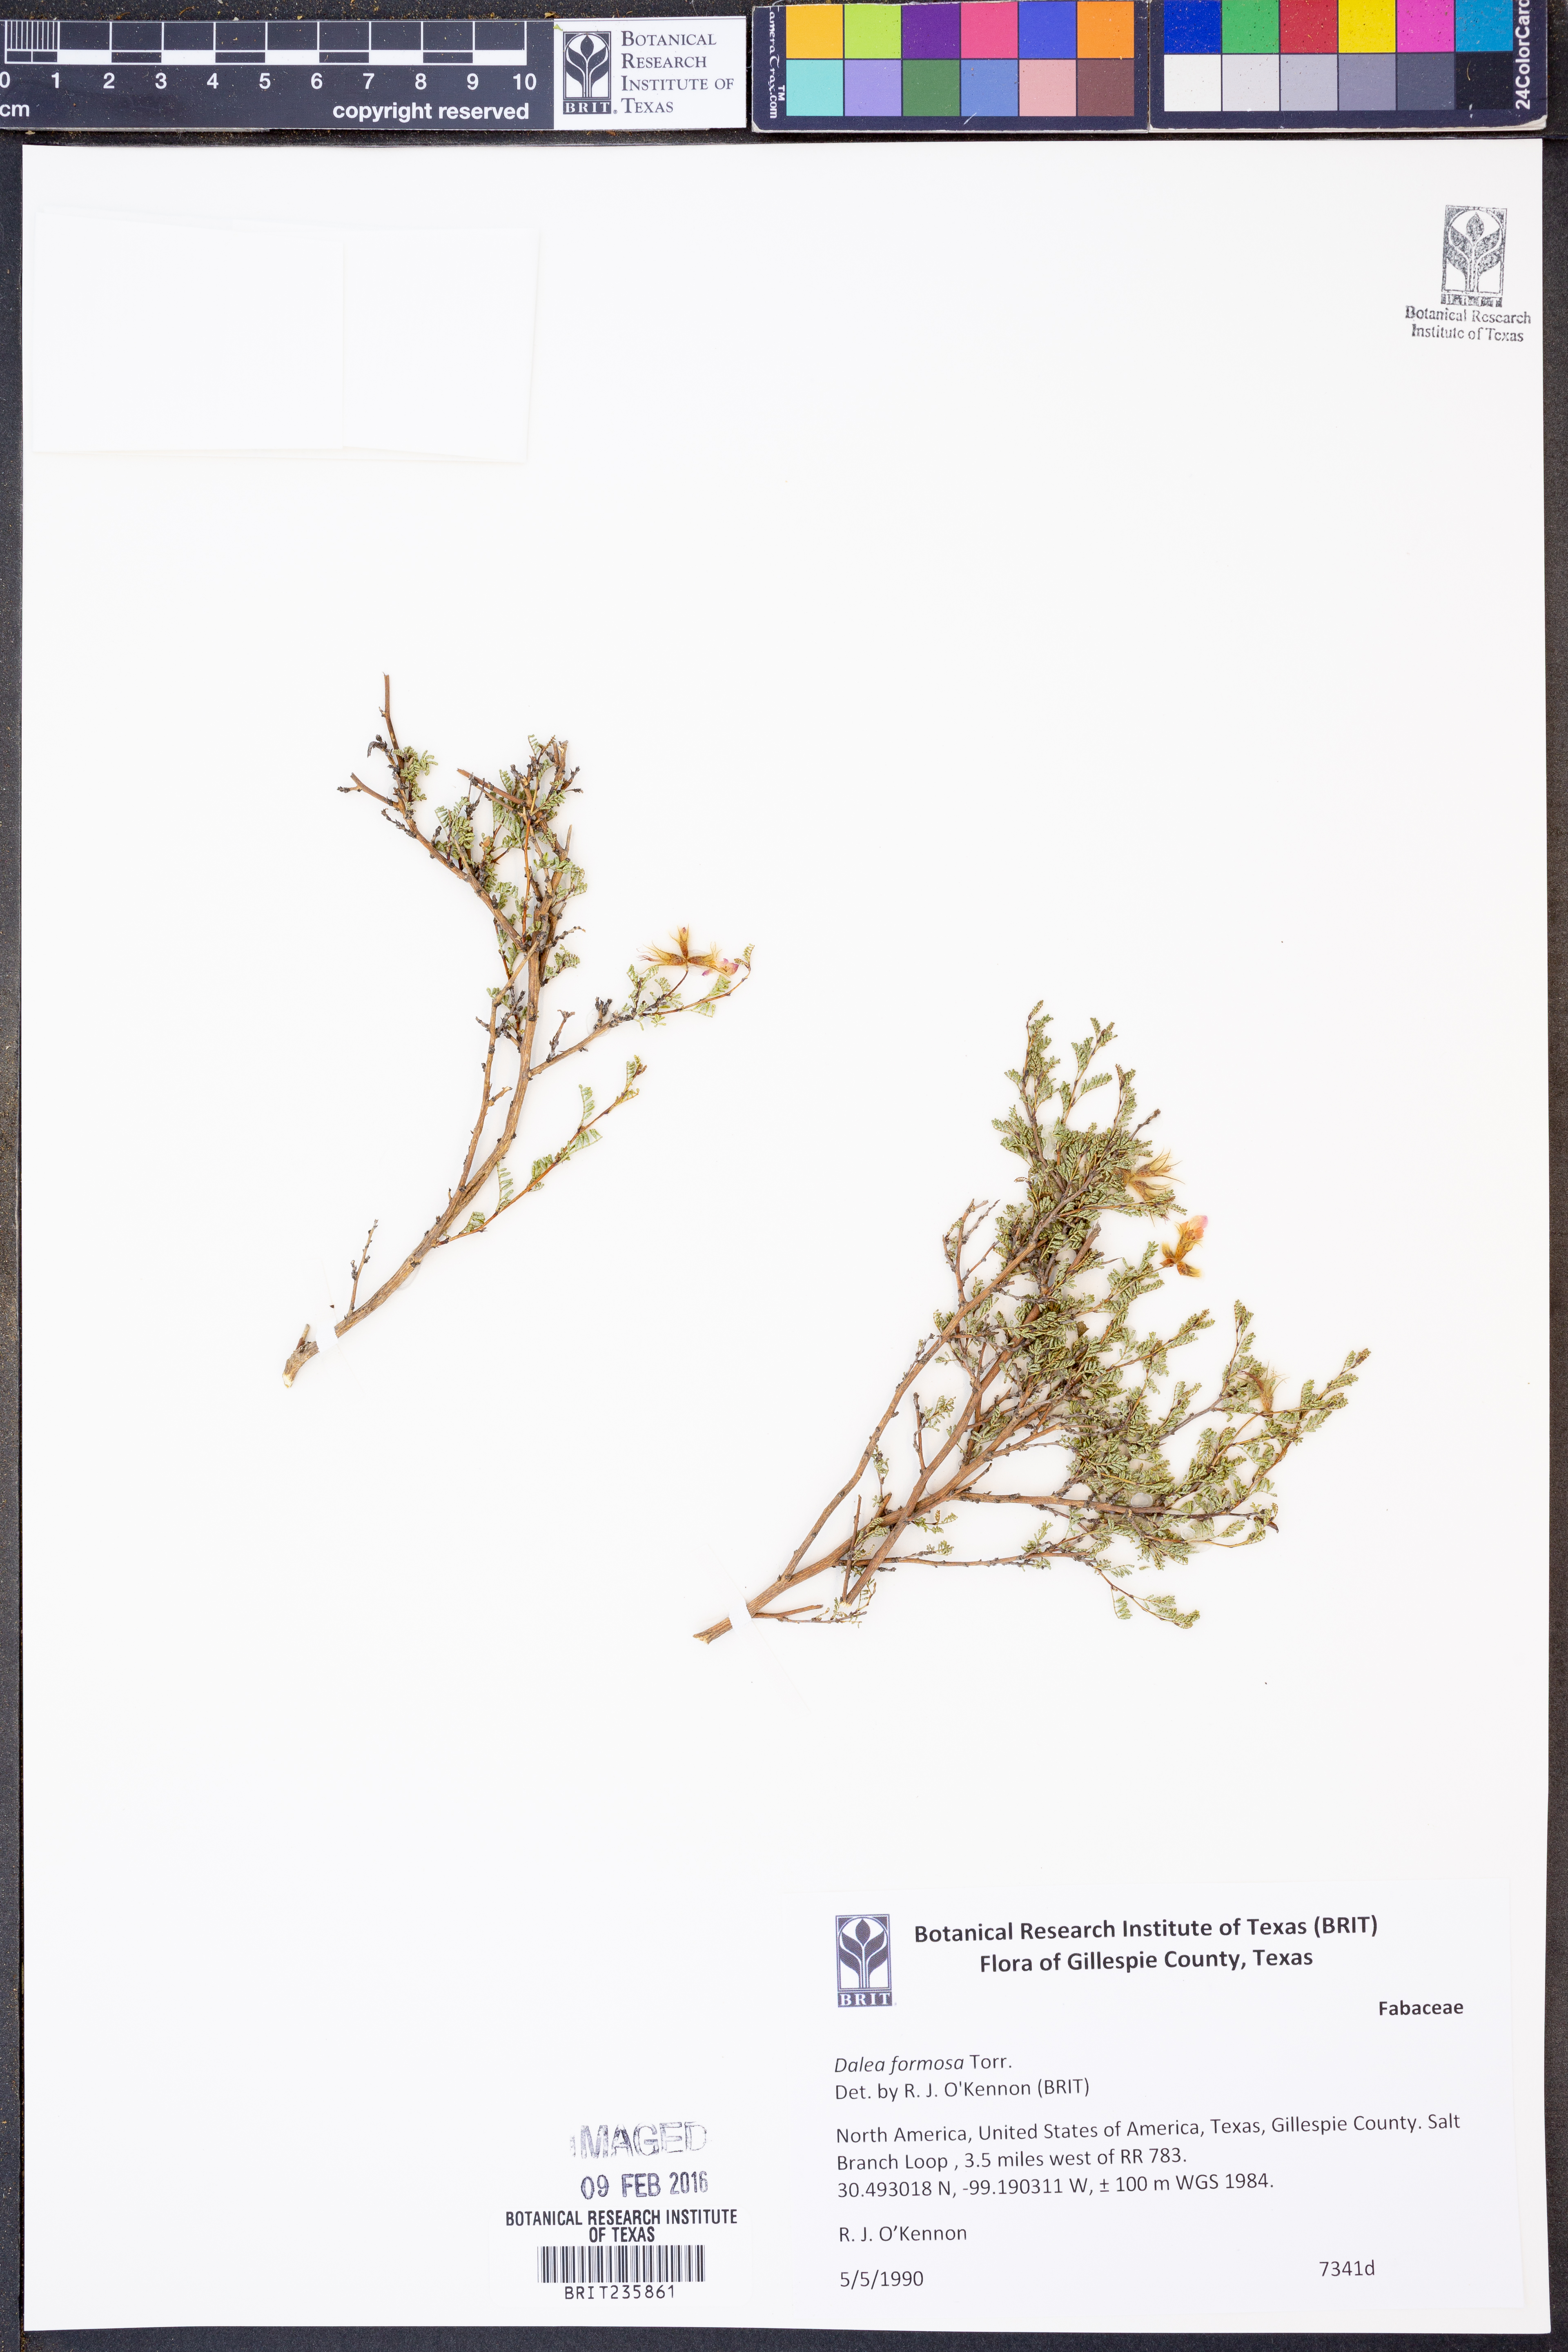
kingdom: Plantae
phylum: Tracheophyta
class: Magnoliopsida
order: Fabales
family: Fabaceae
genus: Dalea
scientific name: Dalea formosa
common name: Feather-plume dalea
